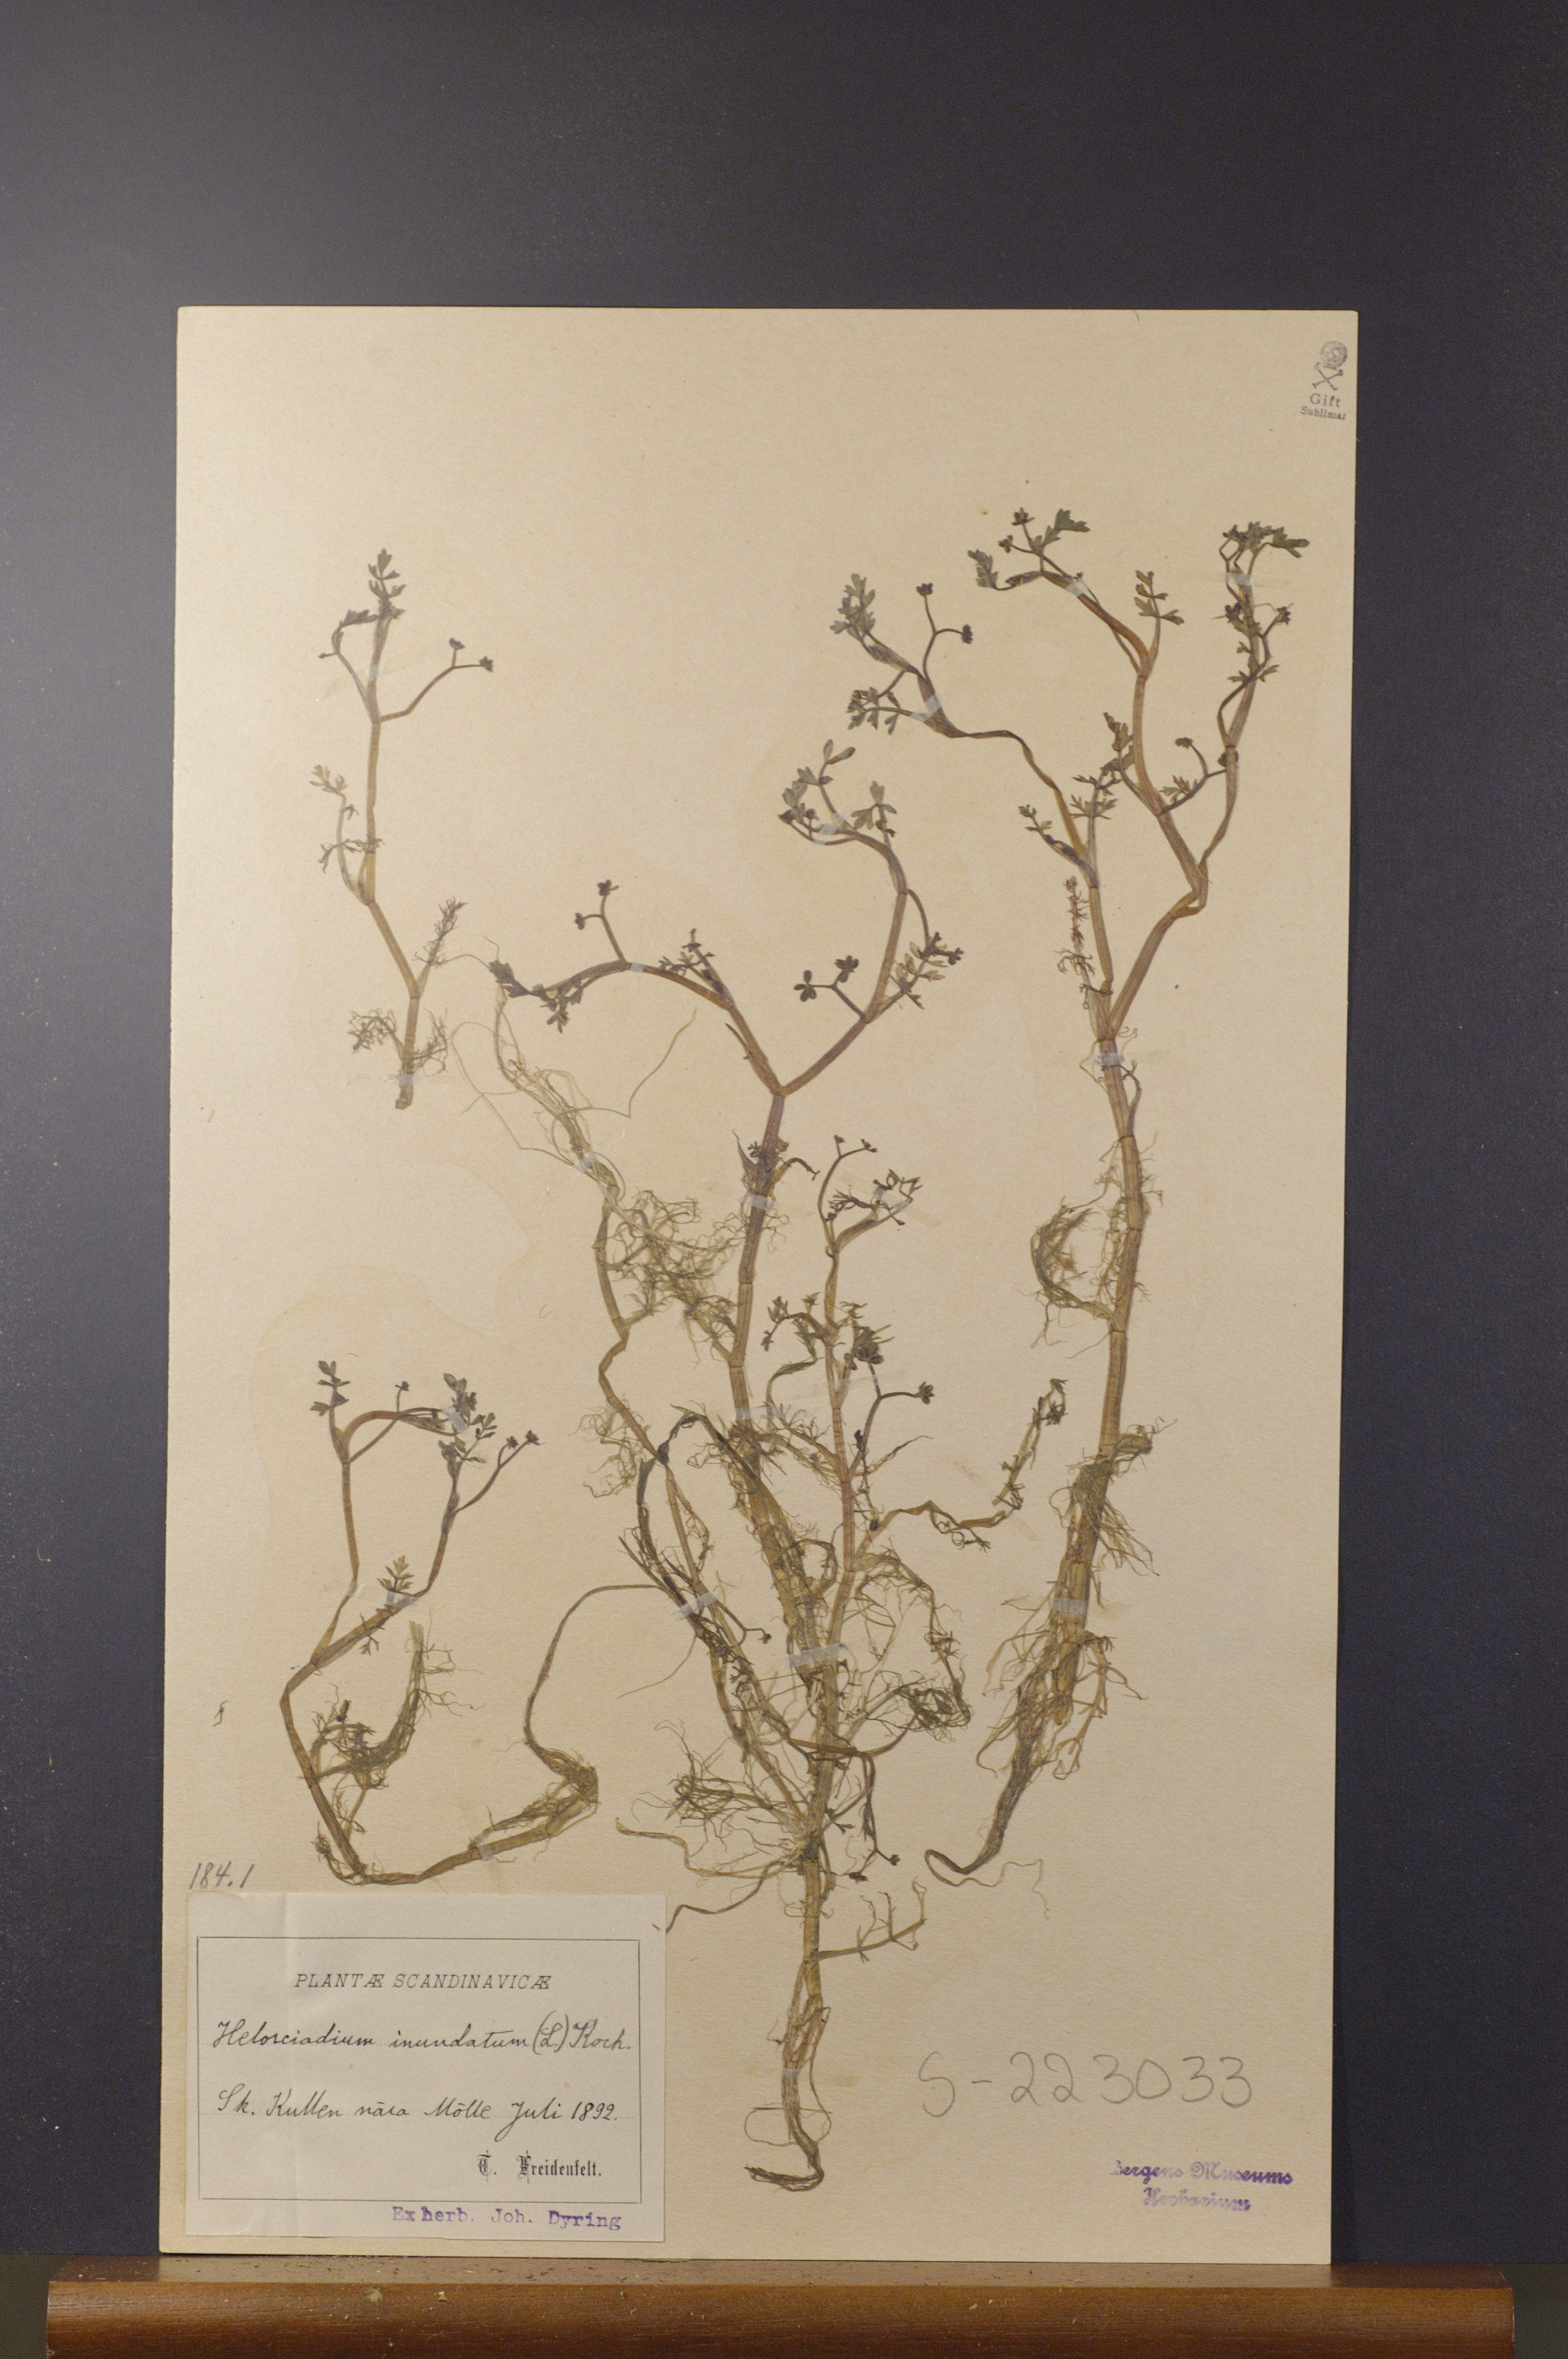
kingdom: Plantae
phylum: Tracheophyta
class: Magnoliopsida
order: Apiales
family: Apiaceae
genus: Helosciadium
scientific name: Helosciadium inundatum
